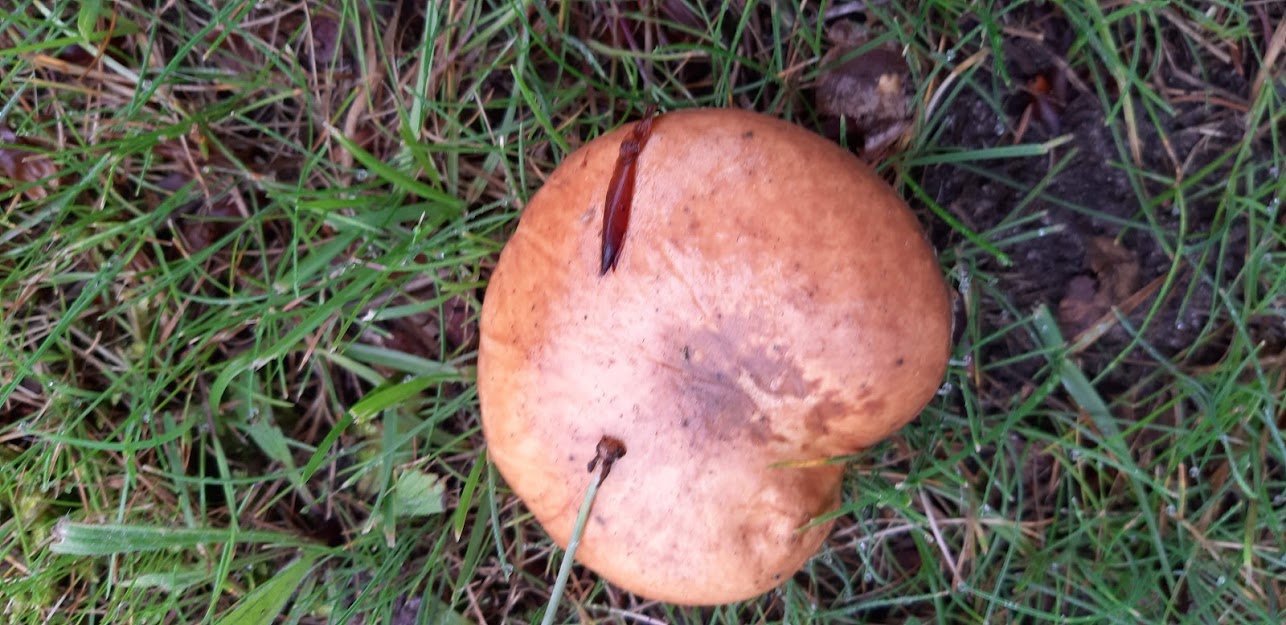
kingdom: Fungi
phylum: Basidiomycota
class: Agaricomycetes
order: Boletales
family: Suillaceae
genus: Suillus
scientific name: Suillus grevillei
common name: lærke-slimrørhat
